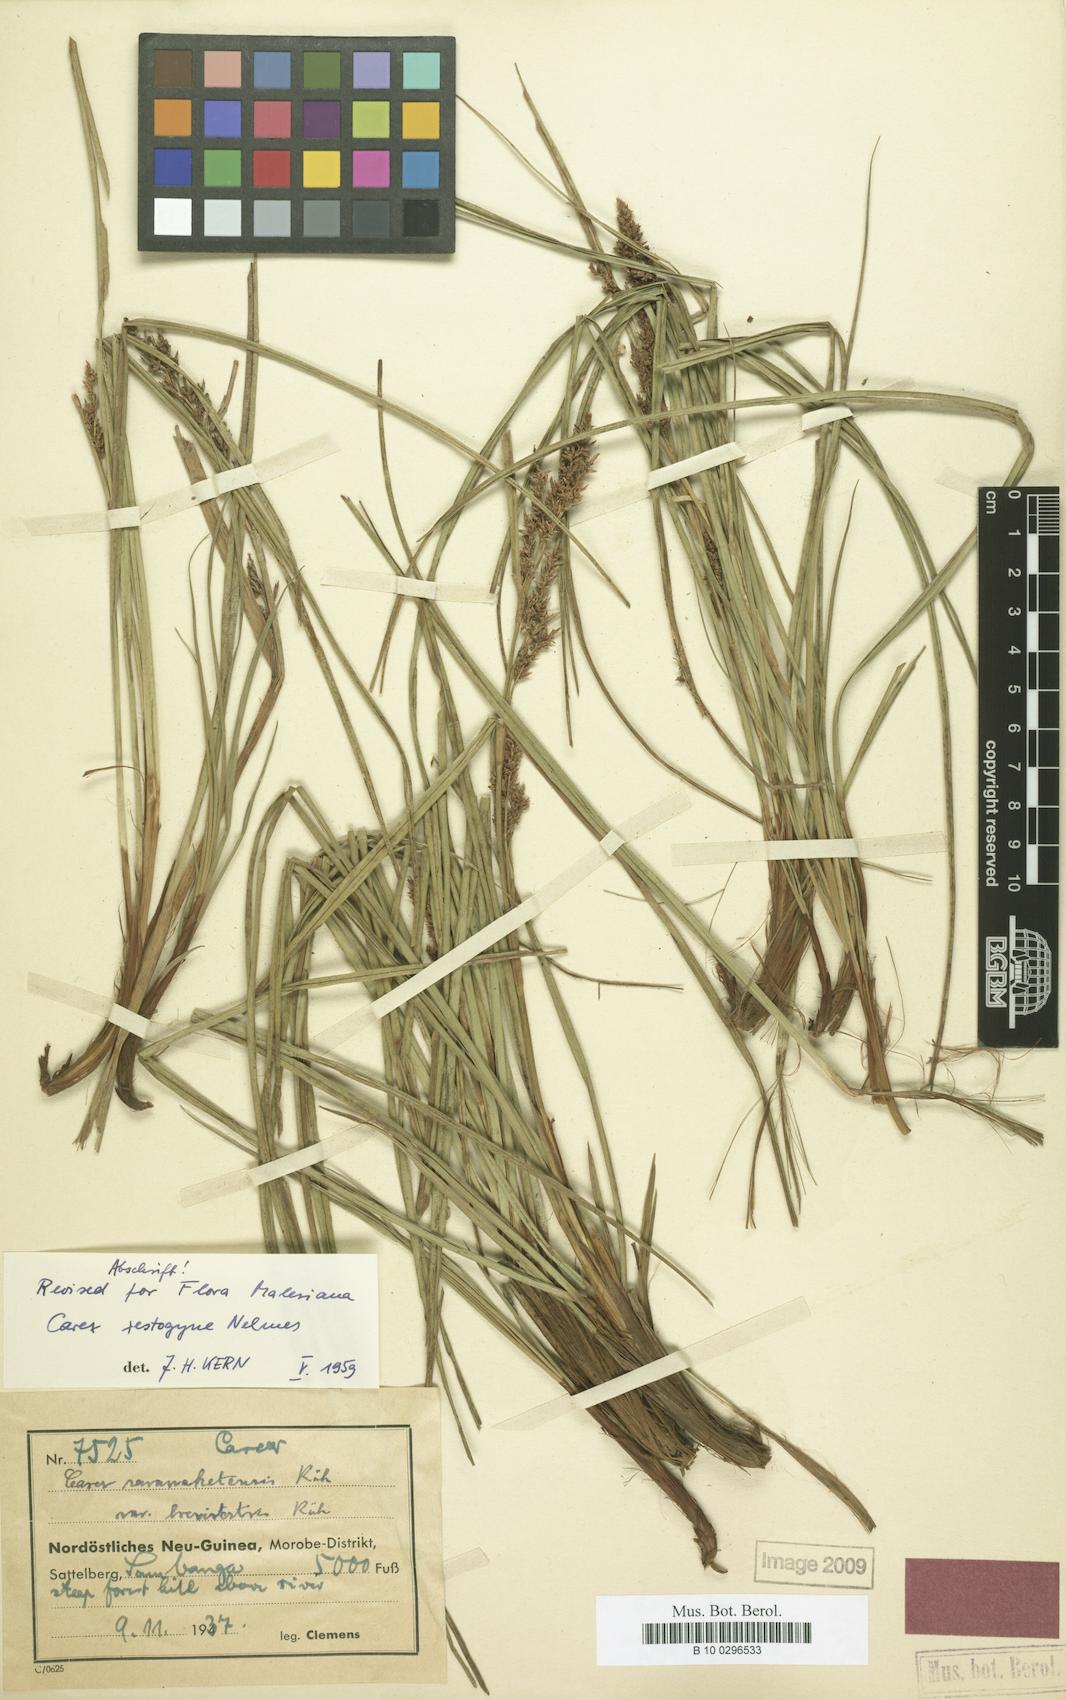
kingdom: Plantae
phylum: Tracheophyta
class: Liliopsida
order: Poales
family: Cyperaceae
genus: Carex
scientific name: Carex rafflesiana
